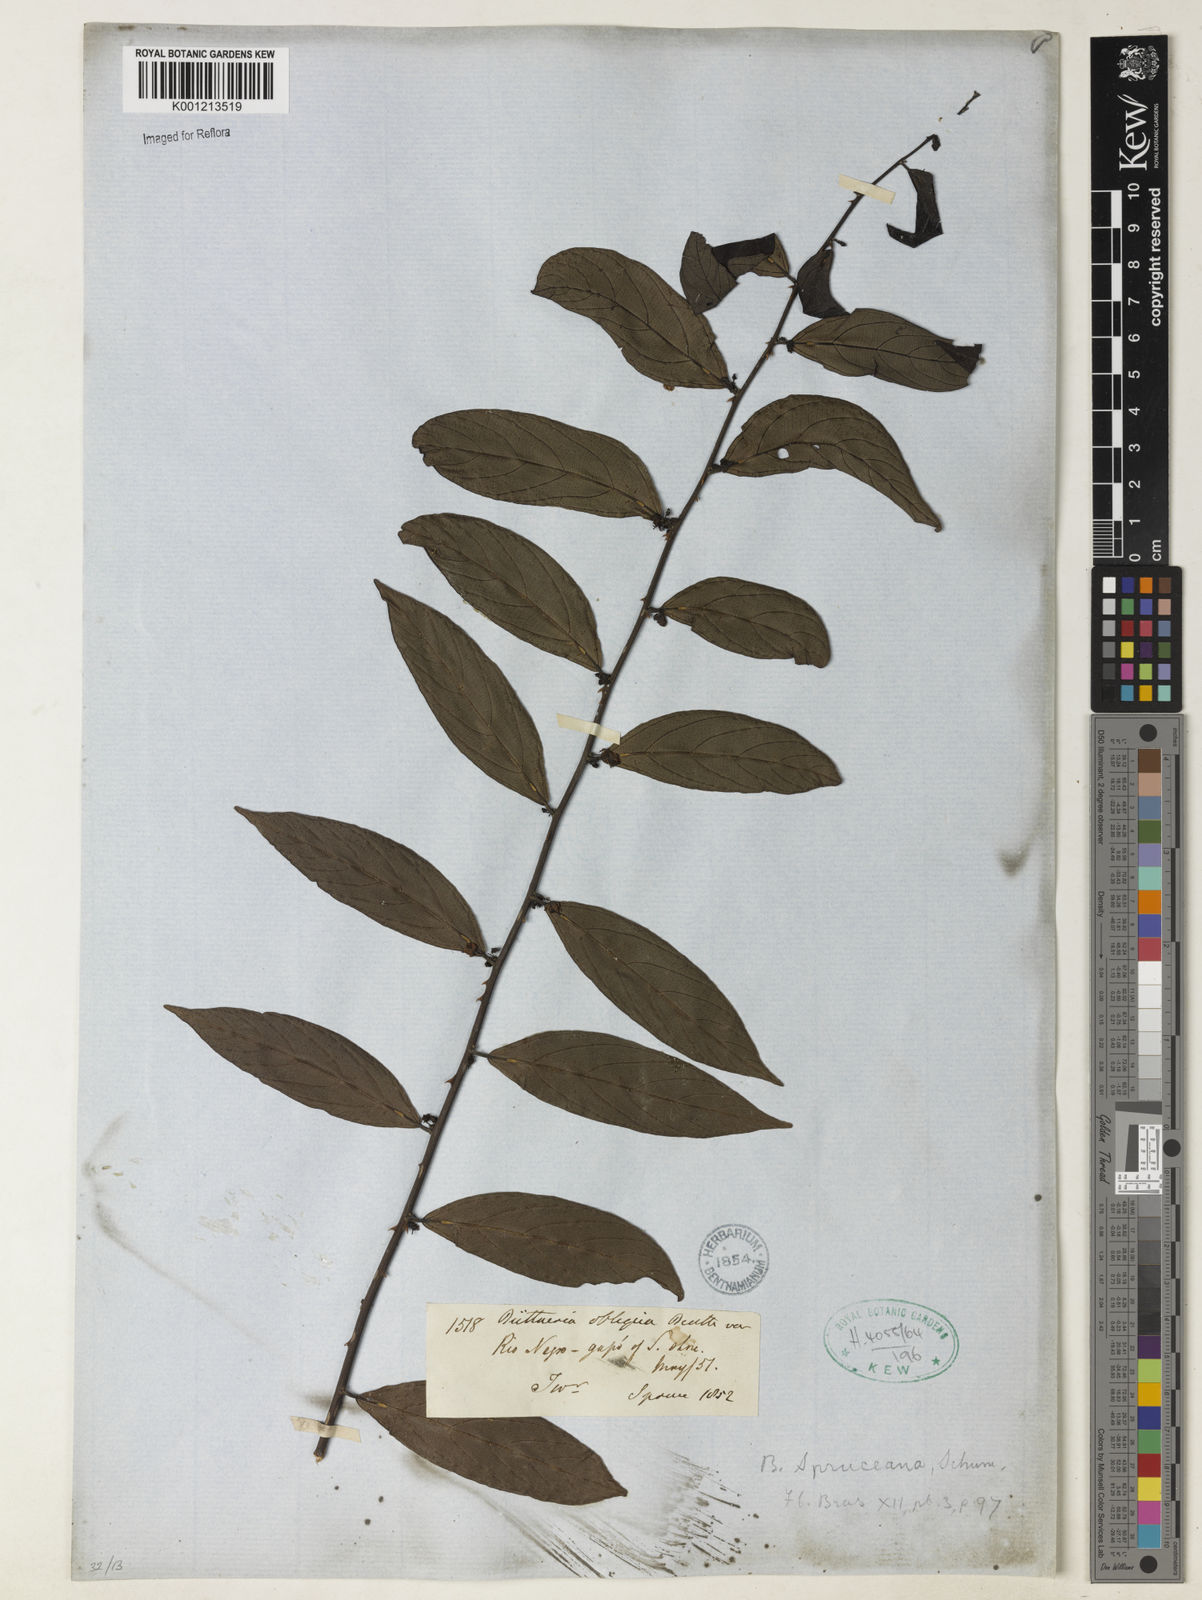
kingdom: Plantae
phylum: Tracheophyta
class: Magnoliopsida
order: Malvales
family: Malvaceae
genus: Byttneria
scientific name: Byttneria obliqua
